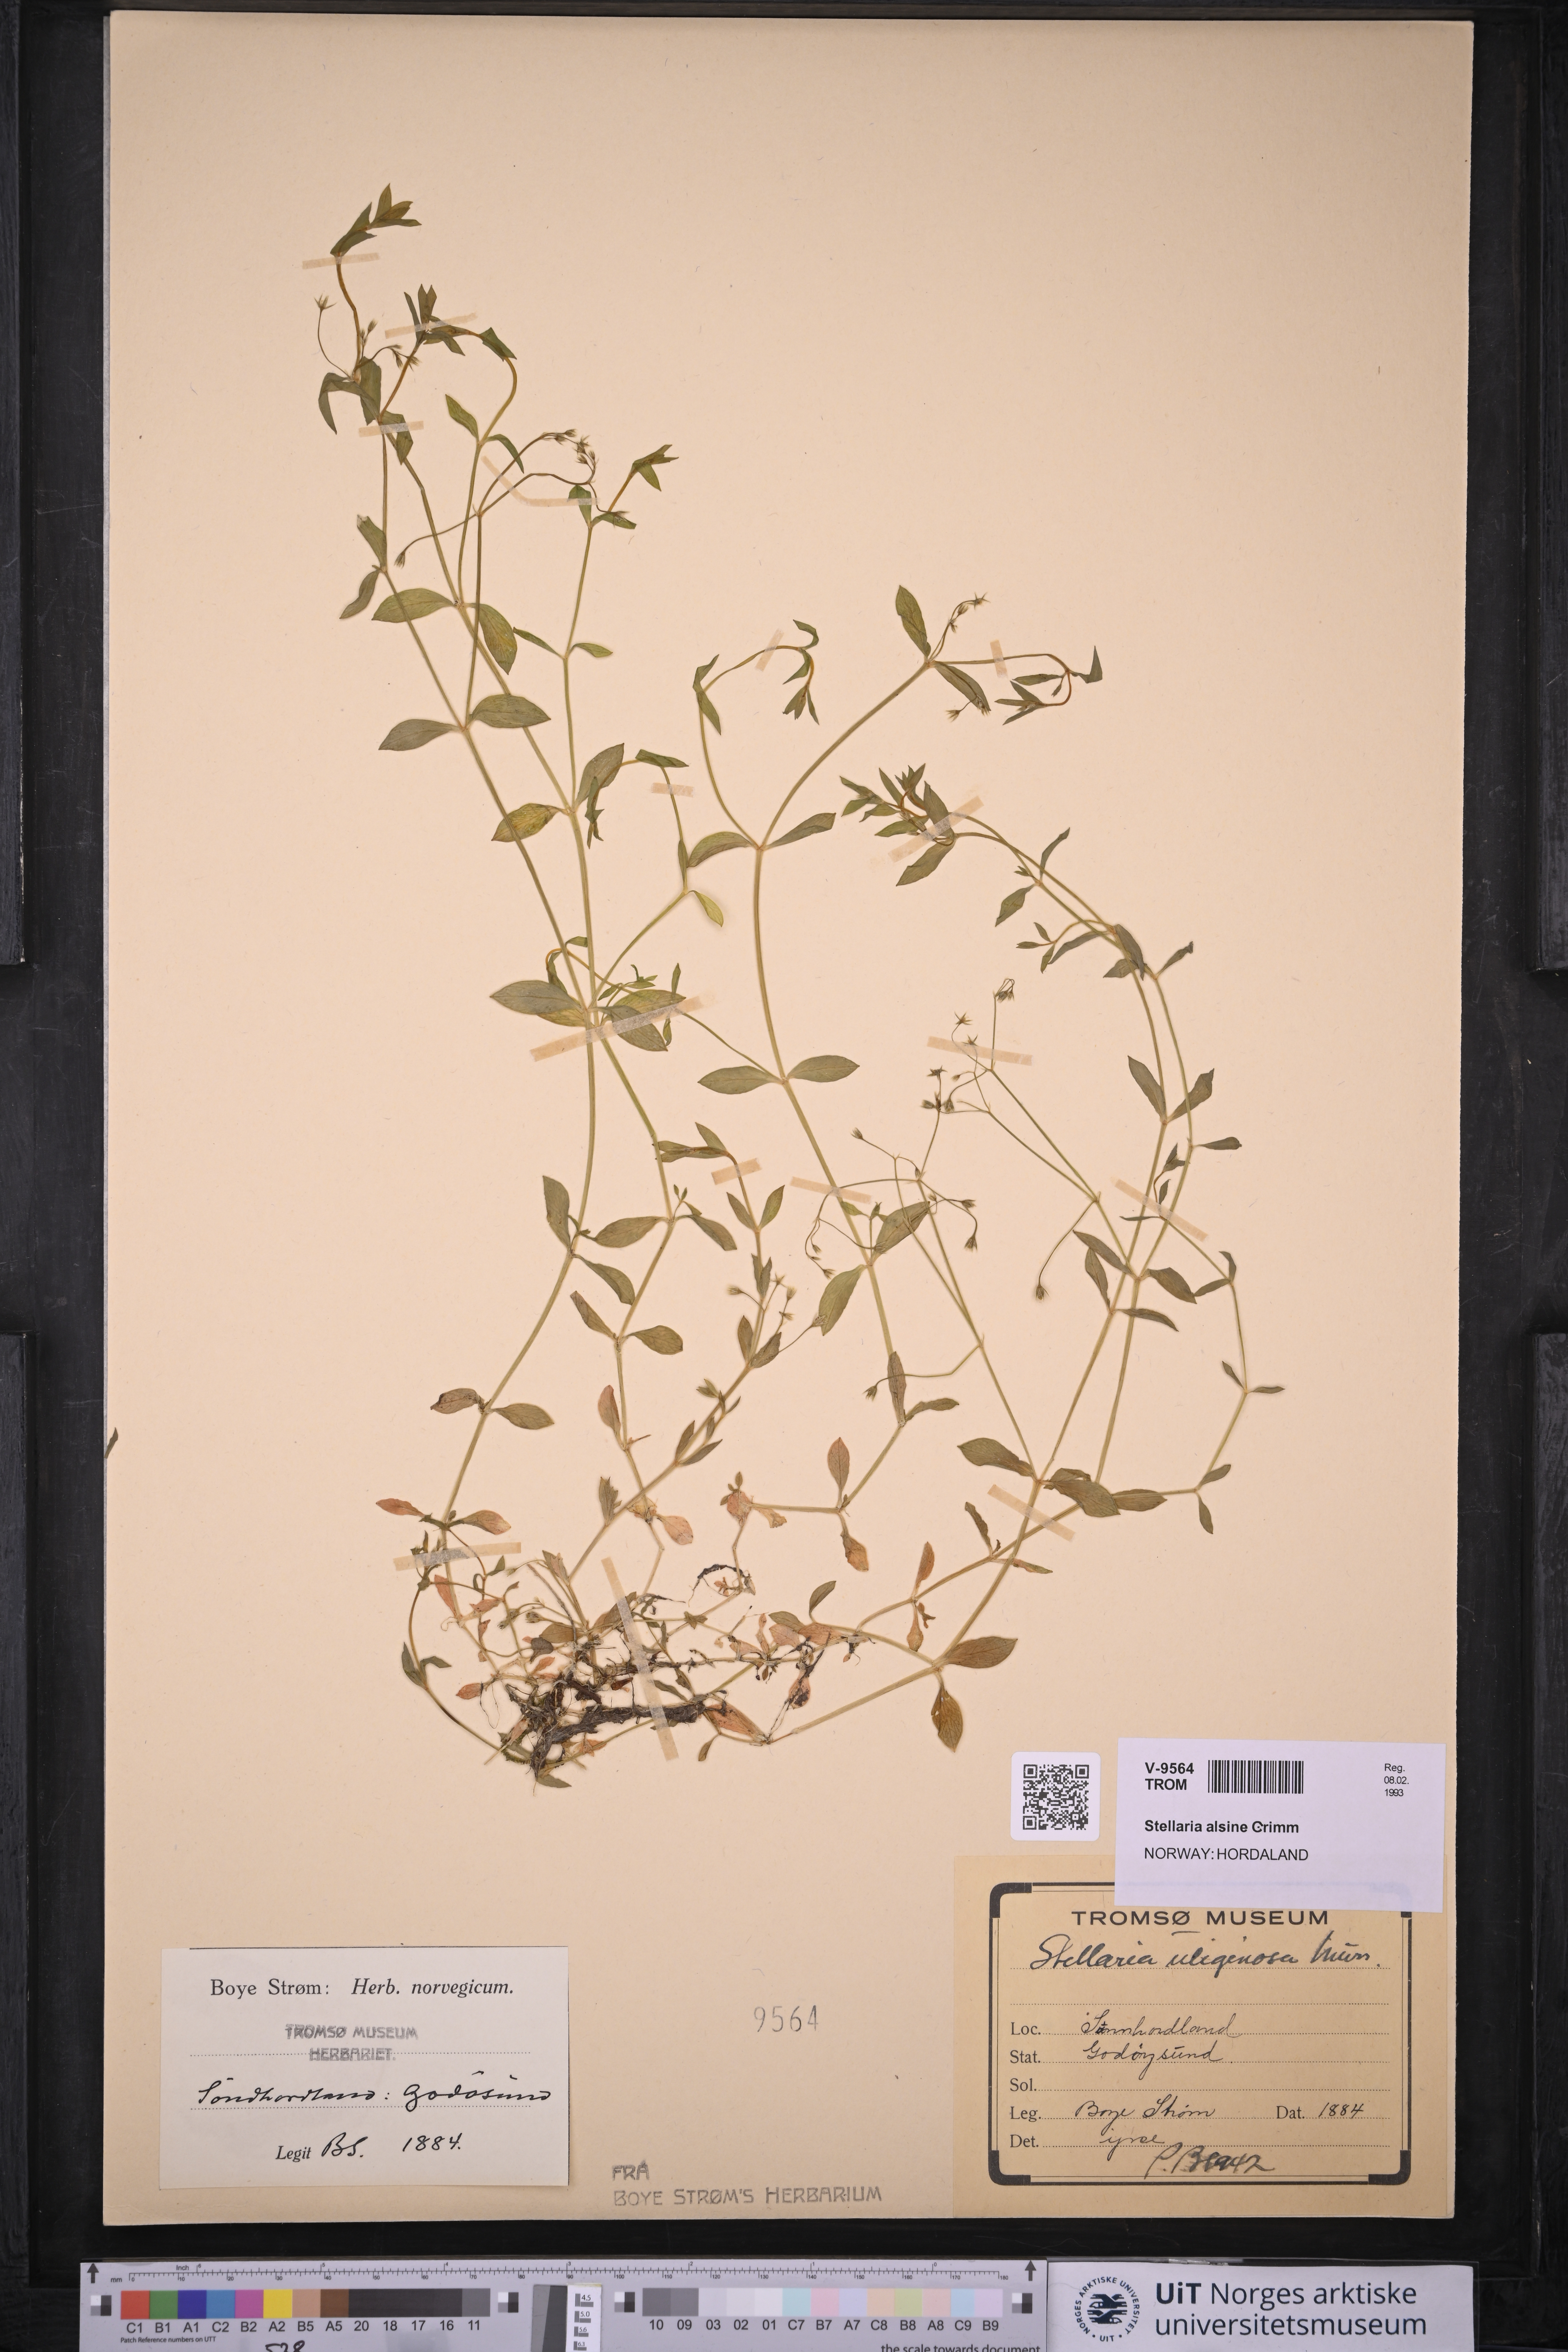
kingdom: Plantae
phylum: Tracheophyta
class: Magnoliopsida
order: Caryophyllales
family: Caryophyllaceae
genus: Stellaria
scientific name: Stellaria alsine
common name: Bog stitchwort
